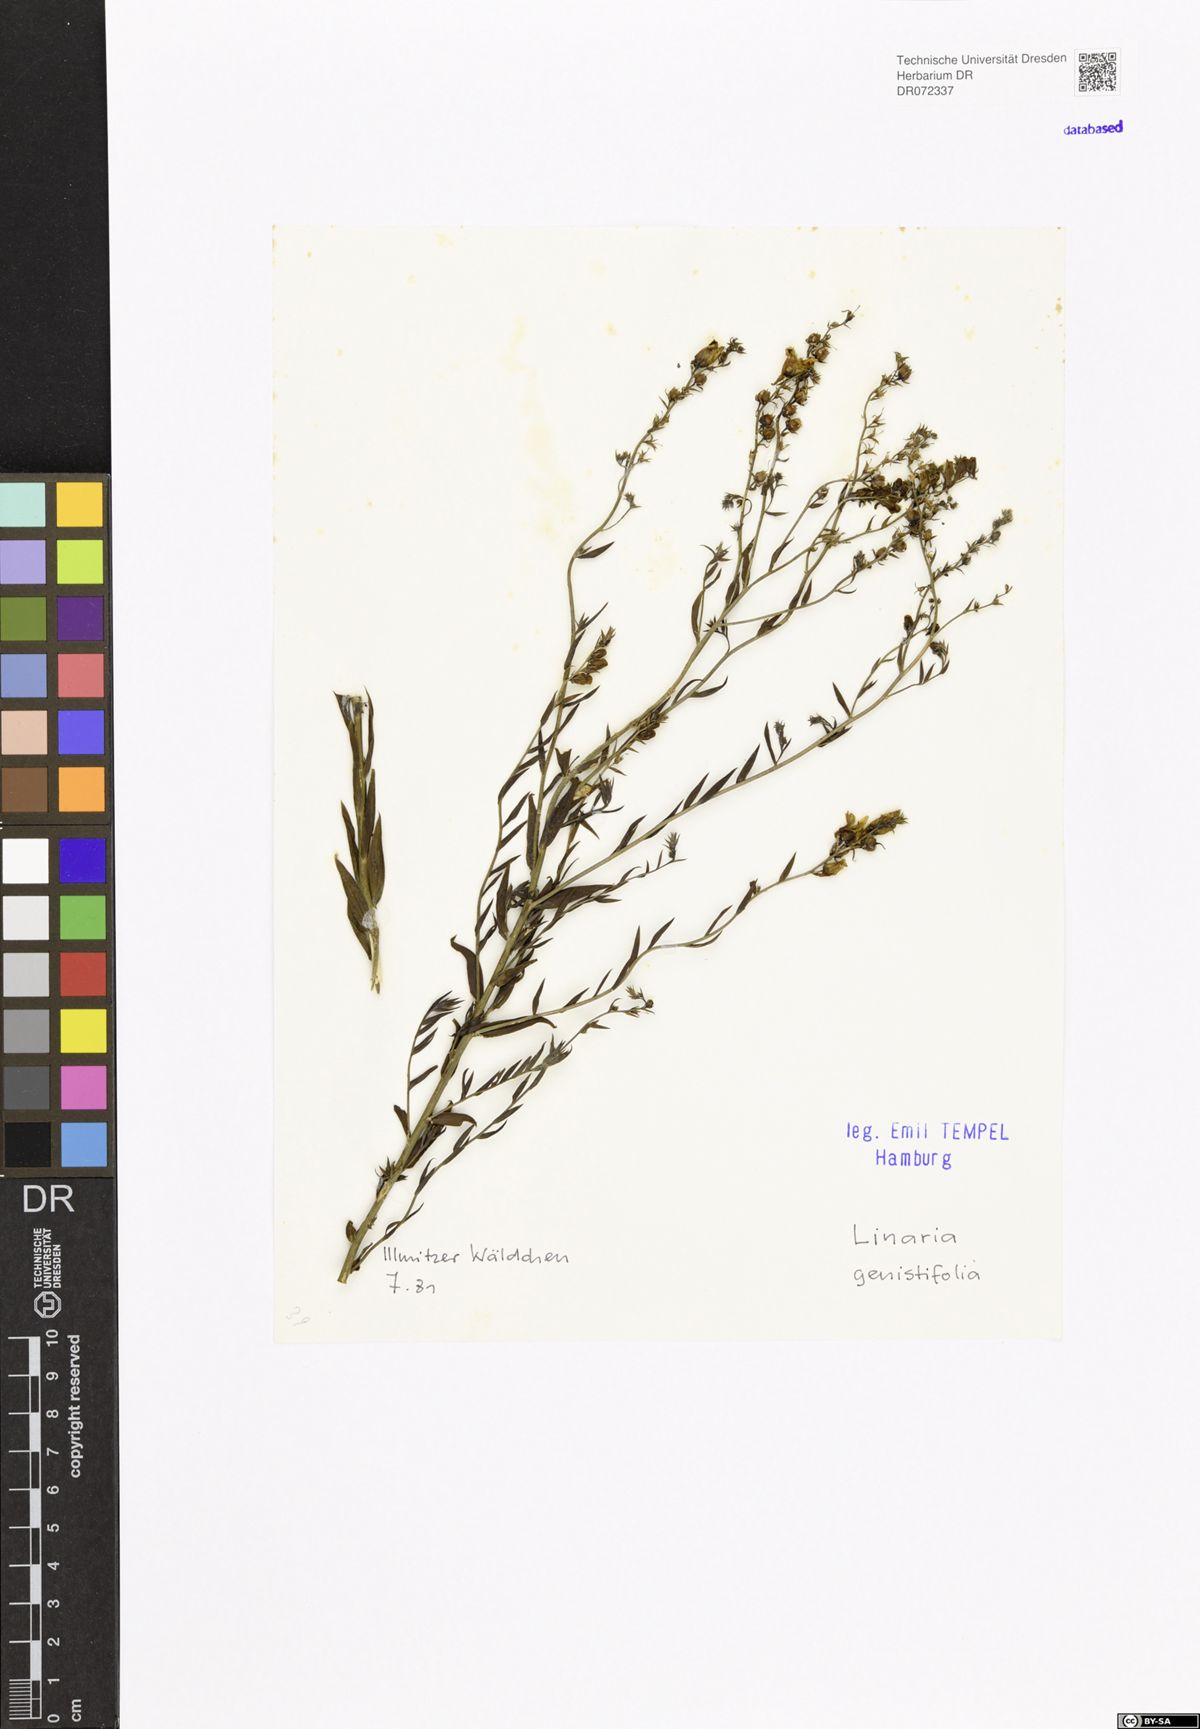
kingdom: Plantae
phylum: Tracheophyta
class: Magnoliopsida
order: Lamiales
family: Plantaginaceae
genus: Linaria
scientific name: Linaria genistifolia
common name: Broomleaf toadflax
